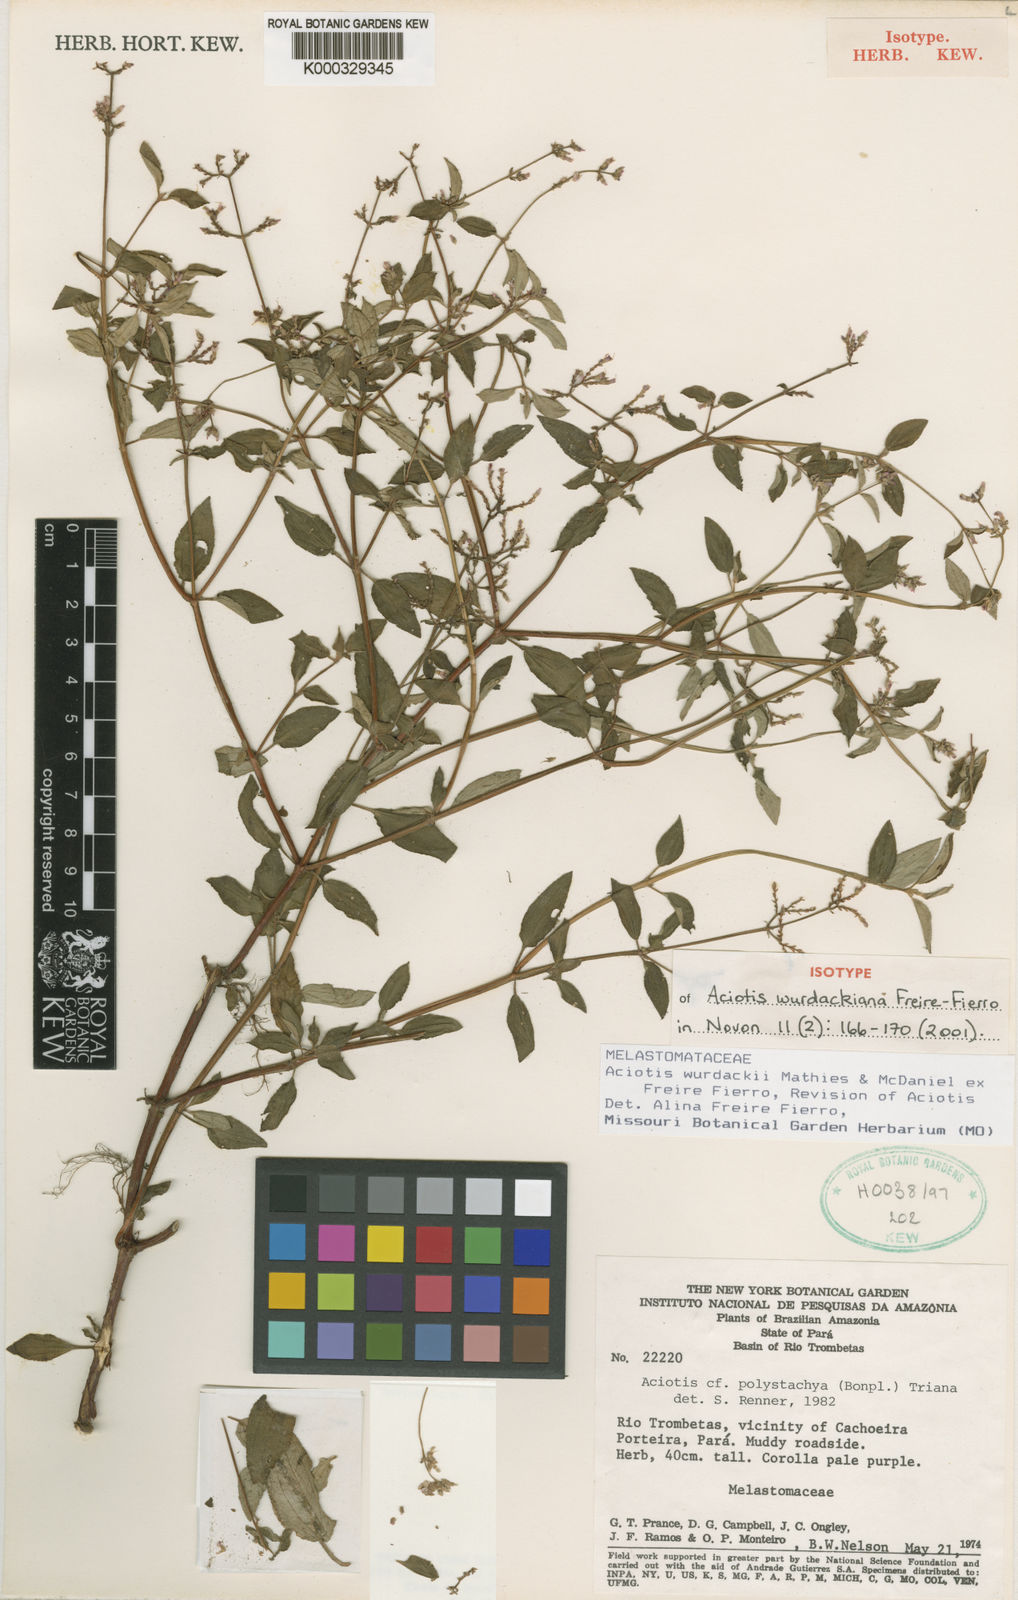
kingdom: Plantae
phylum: Tracheophyta
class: Magnoliopsida
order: Myrtales
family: Melastomataceae
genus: Aciotis
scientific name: Aciotis wurdackiana
